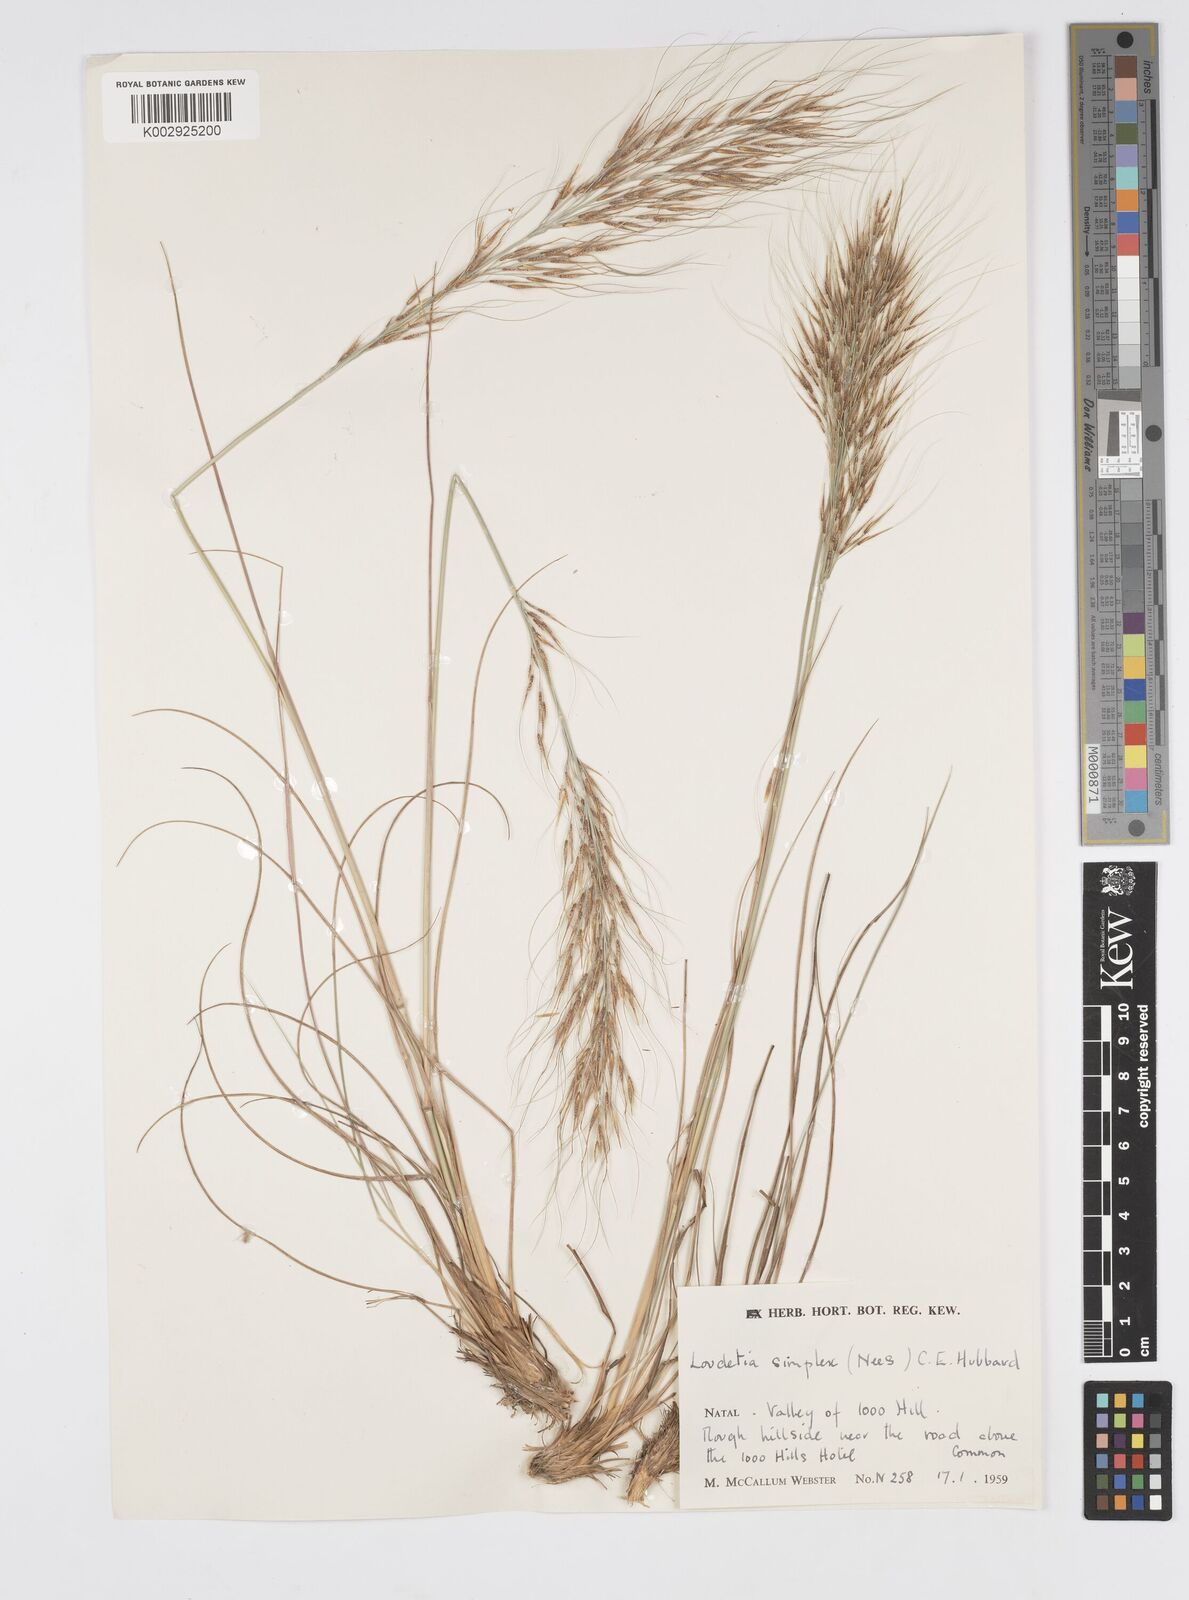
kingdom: Plantae
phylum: Tracheophyta
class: Liliopsida
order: Poales
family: Poaceae
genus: Loudetia
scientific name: Loudetia simplex
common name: Common russet grass
